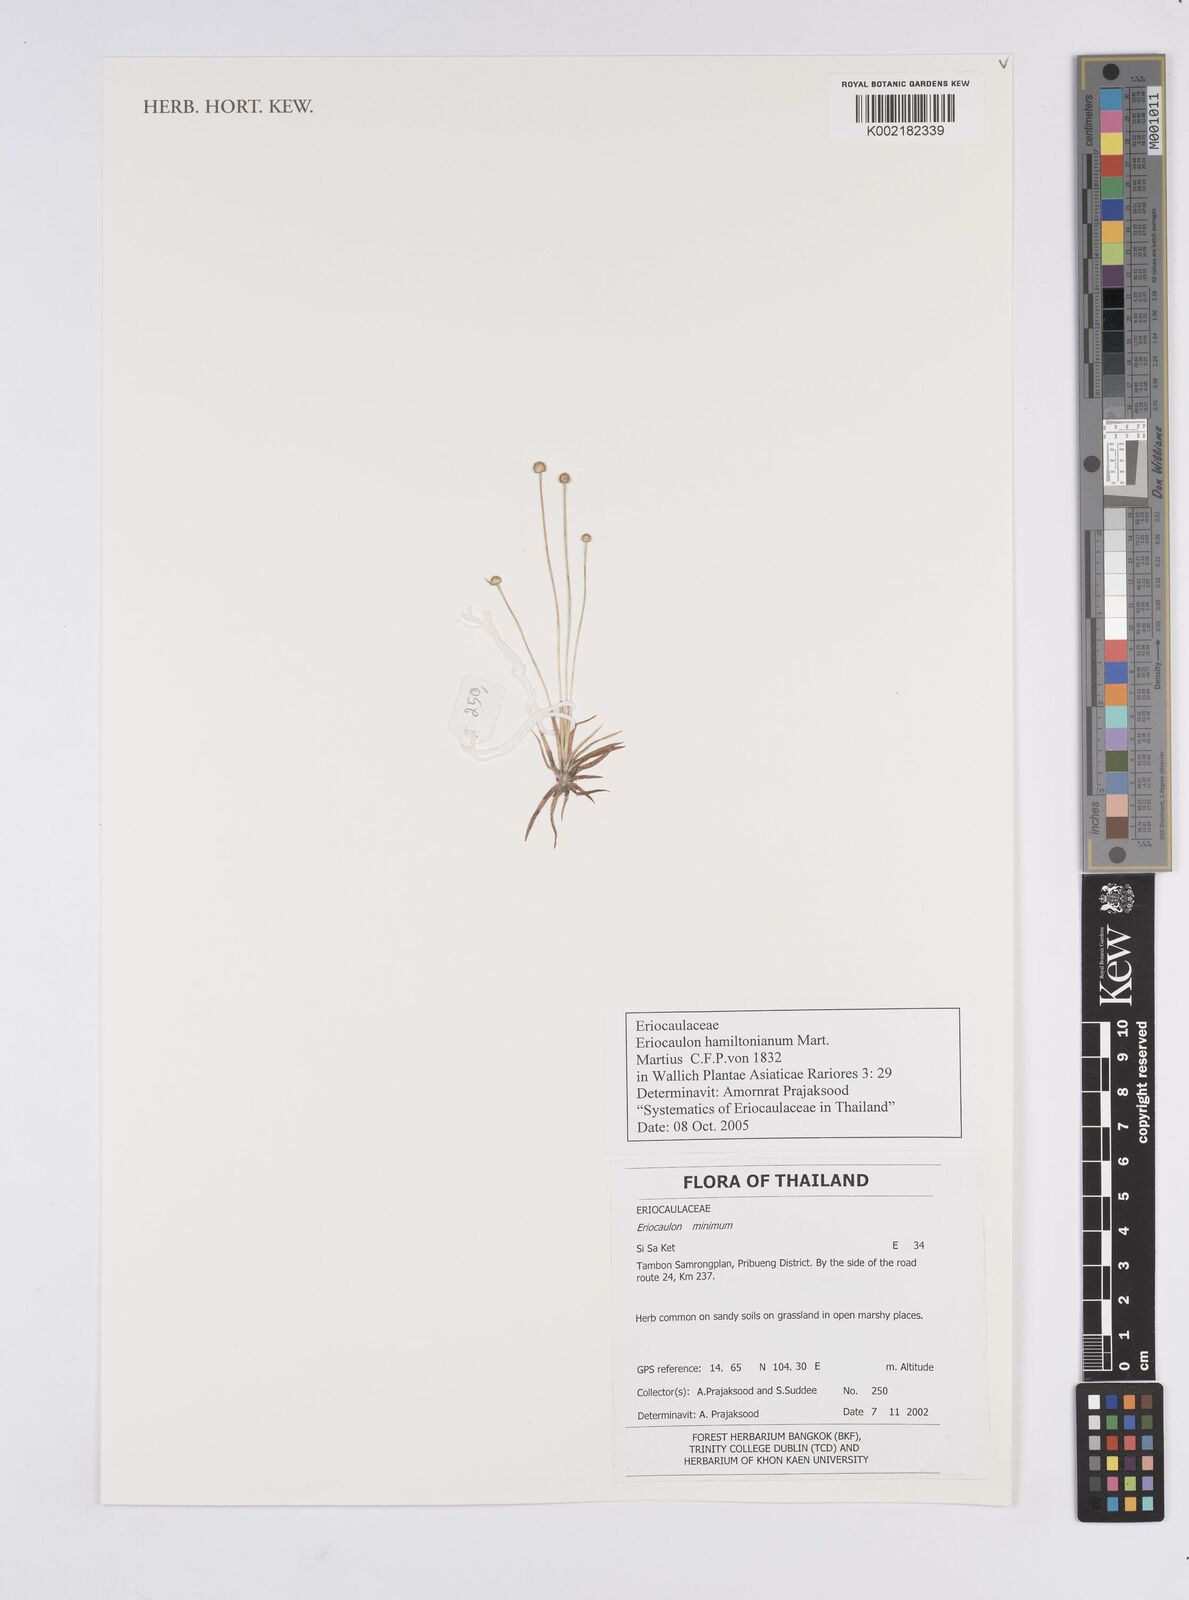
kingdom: Plantae
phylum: Tracheophyta
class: Liliopsida
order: Poales
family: Eriocaulaceae
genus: Eriocaulon
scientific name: Eriocaulon hamiltonianum
